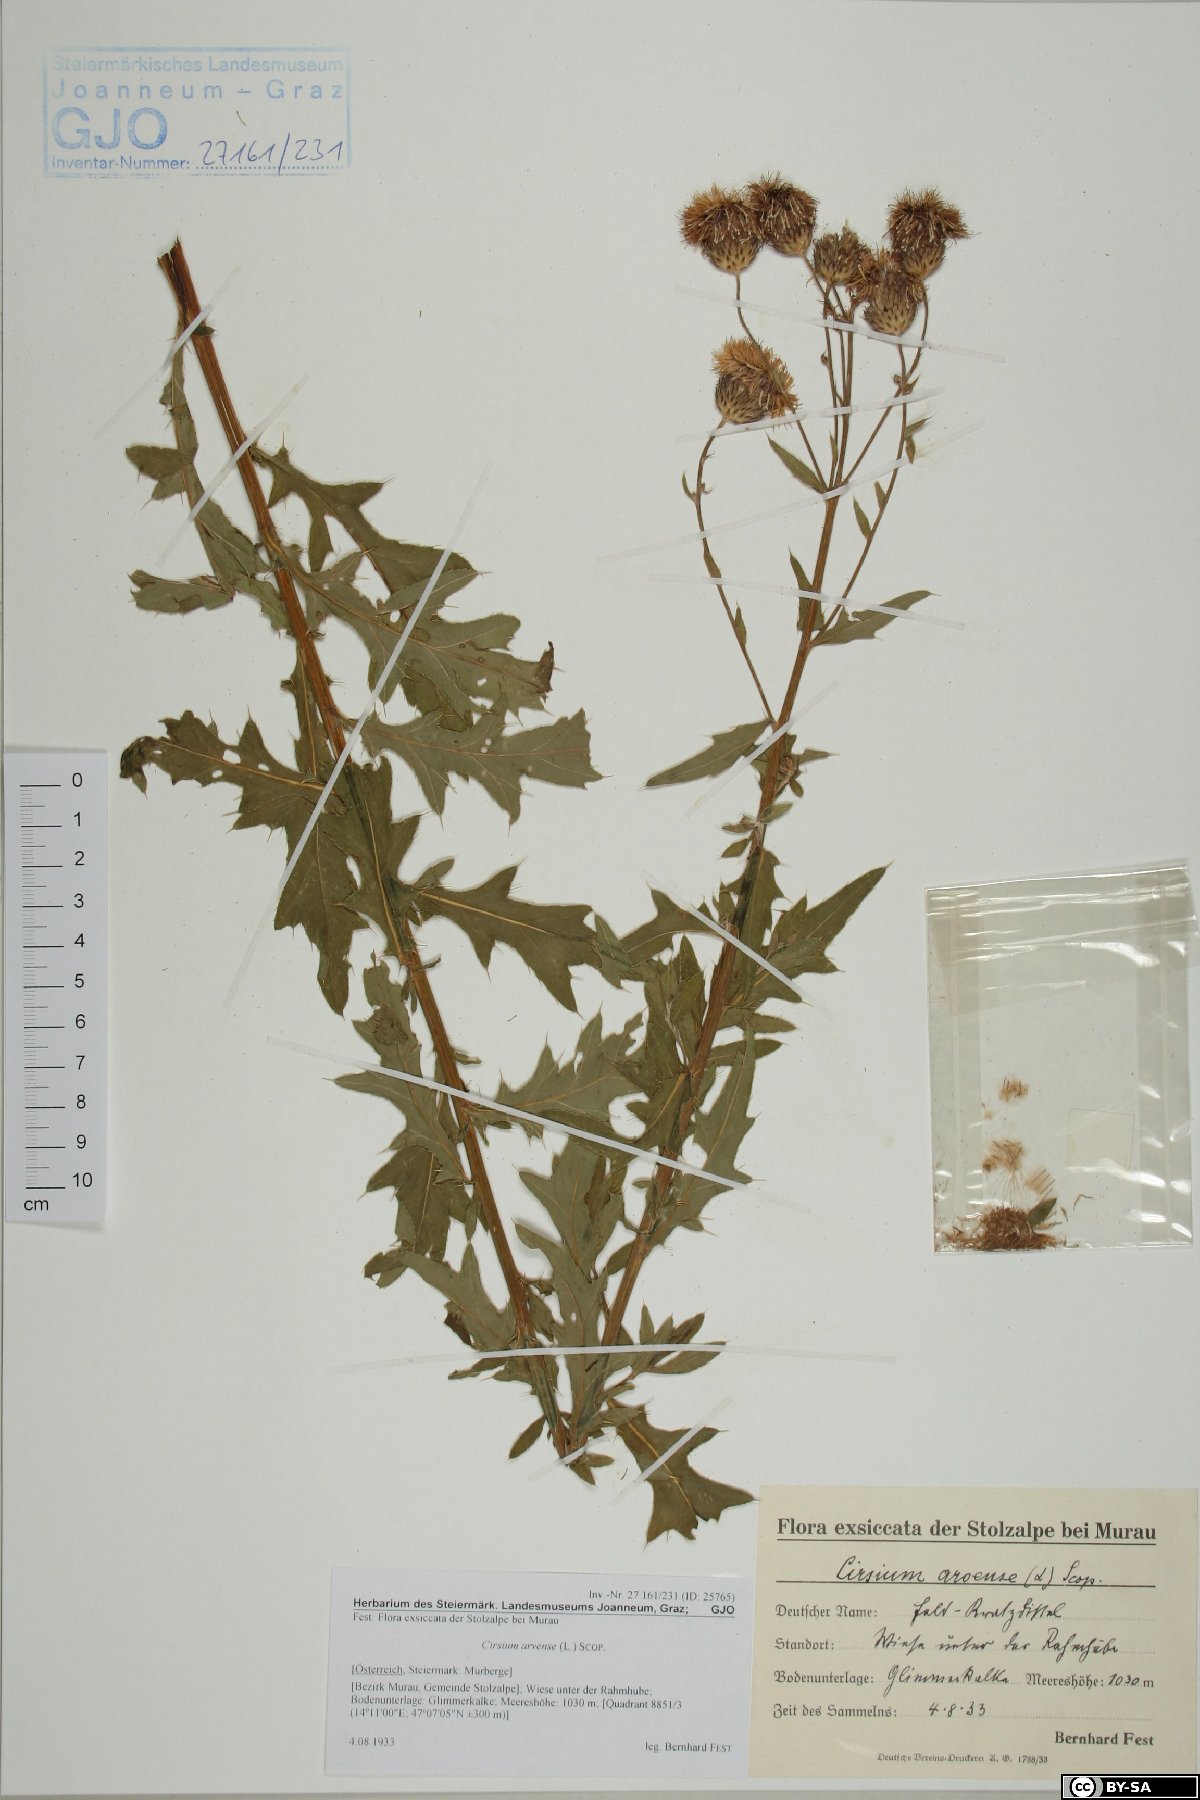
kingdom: Plantae
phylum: Tracheophyta
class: Magnoliopsida
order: Asterales
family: Asteraceae
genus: Cirsium
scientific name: Cirsium arvense
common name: Creeping thistle
